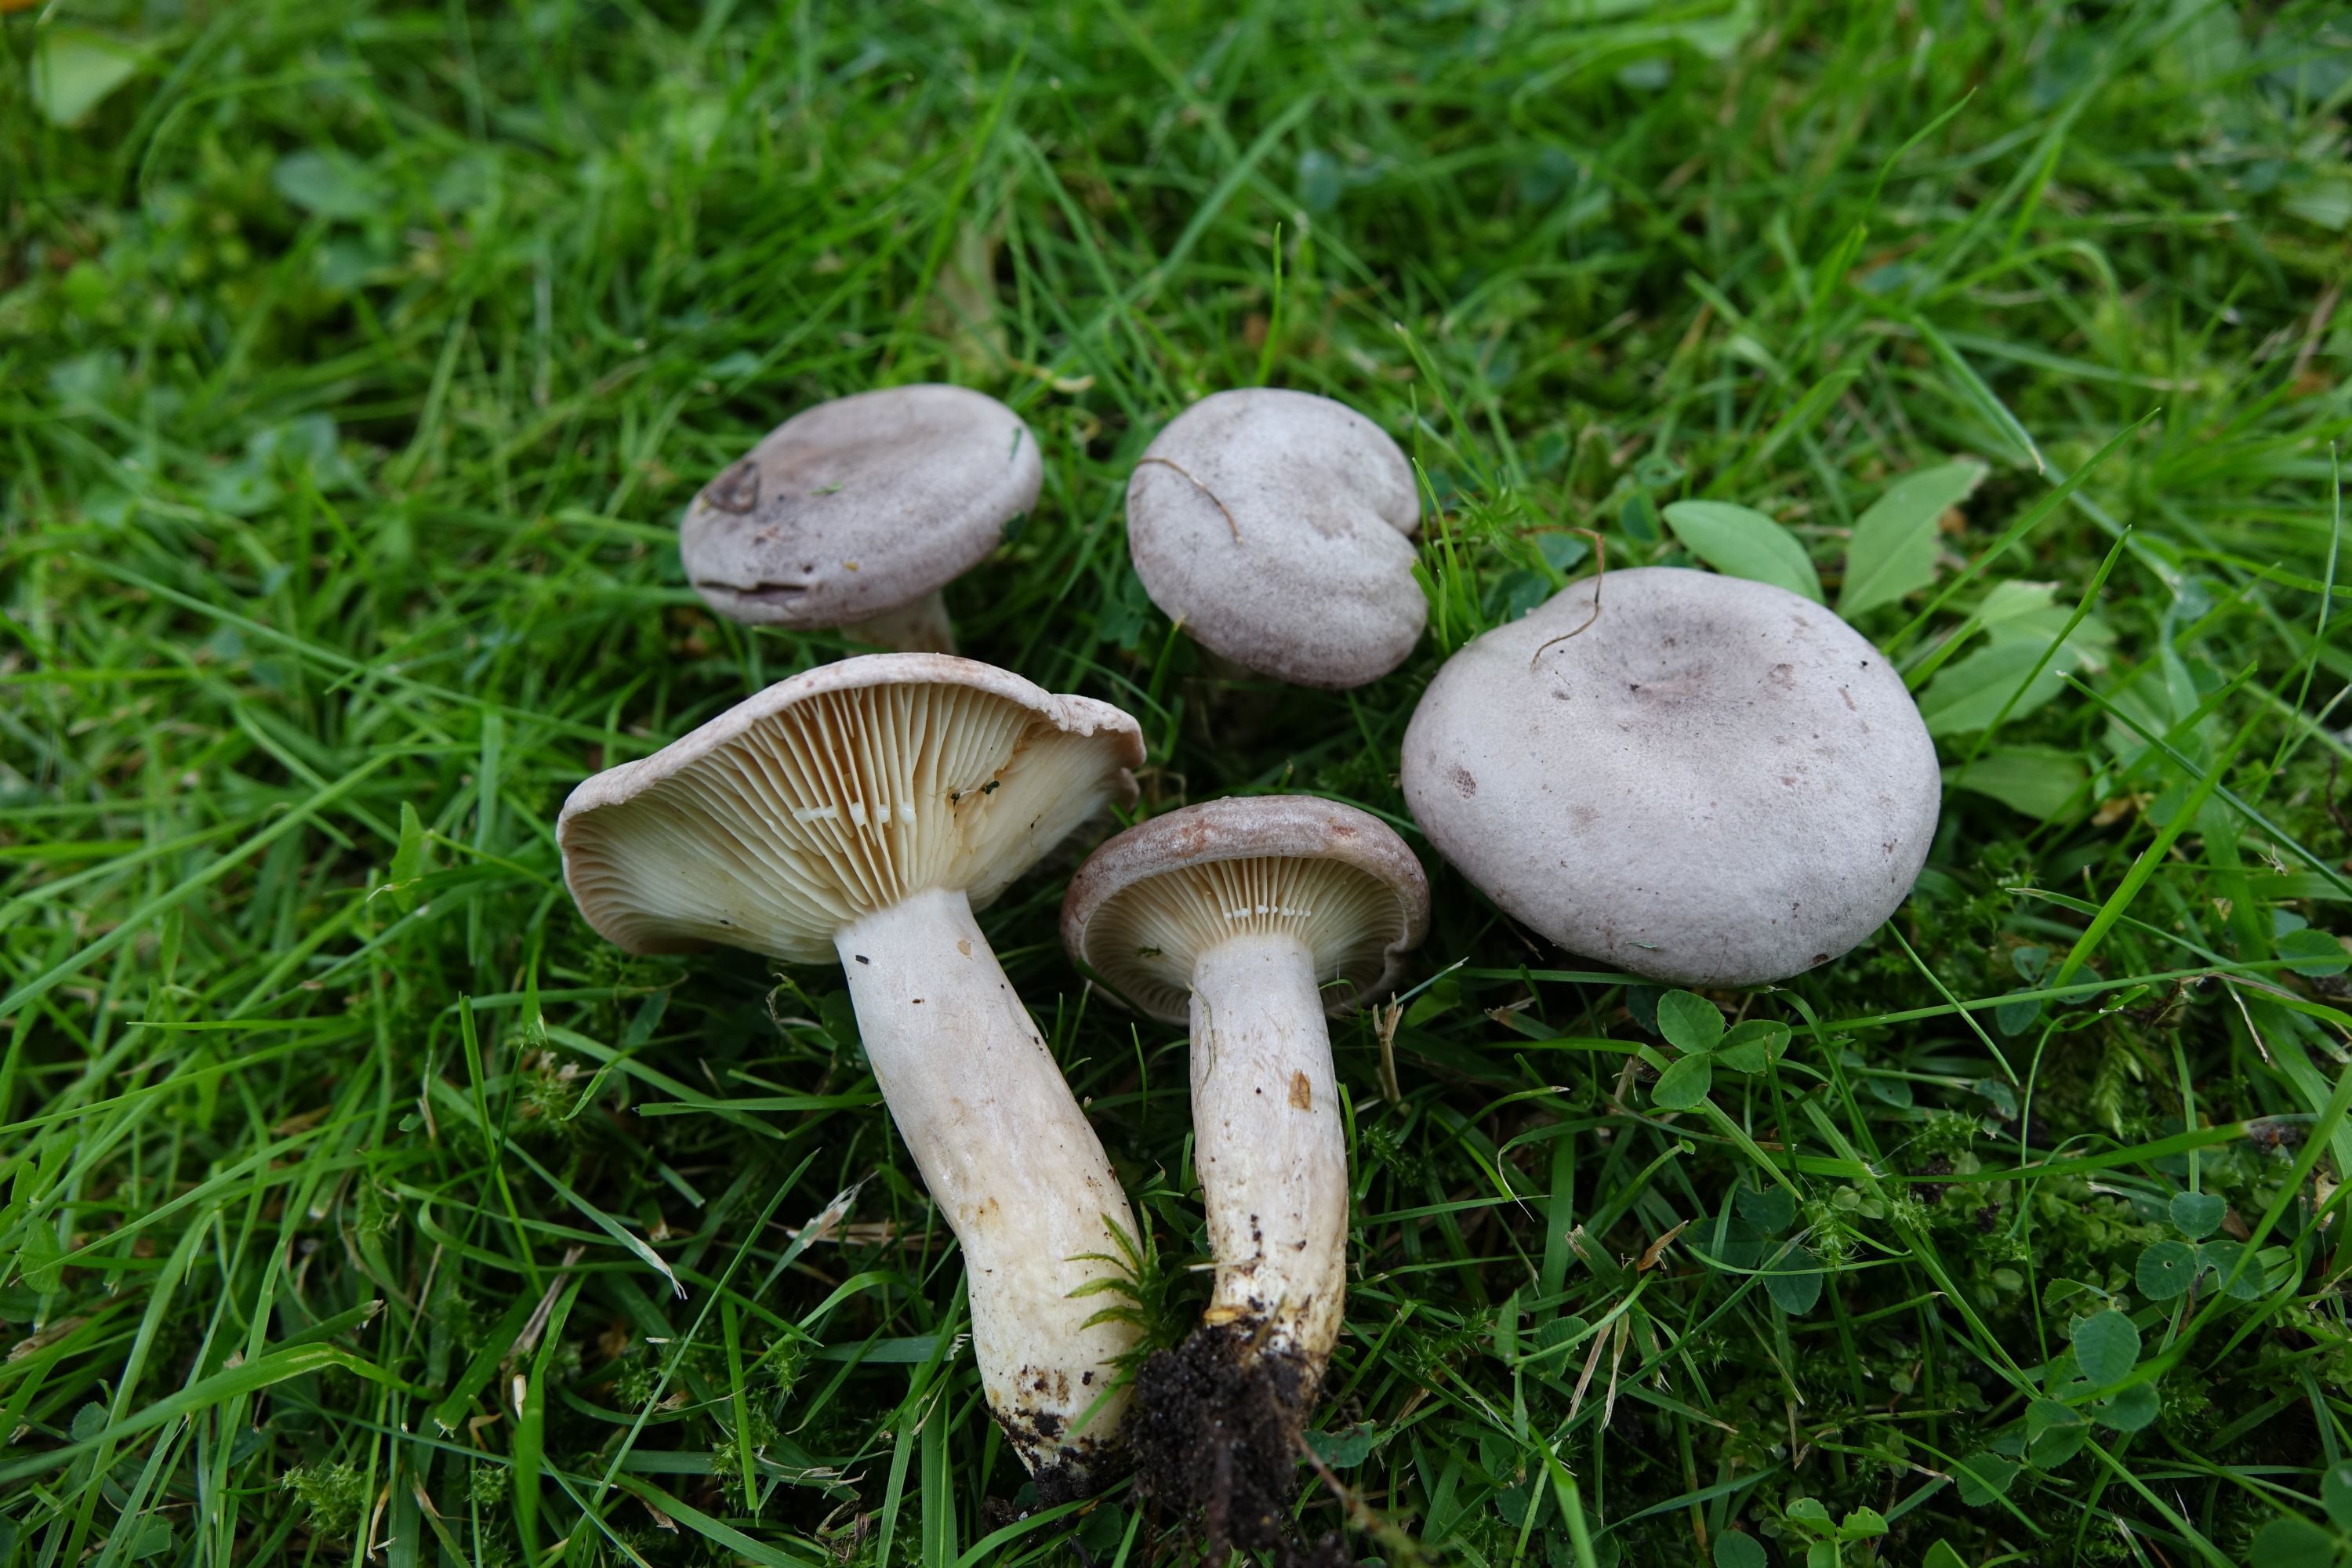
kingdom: Fungi
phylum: Basidiomycota
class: Agaricomycetes
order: Russulales
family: Russulaceae
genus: Lactarius
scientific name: Lactarius flexuosus
